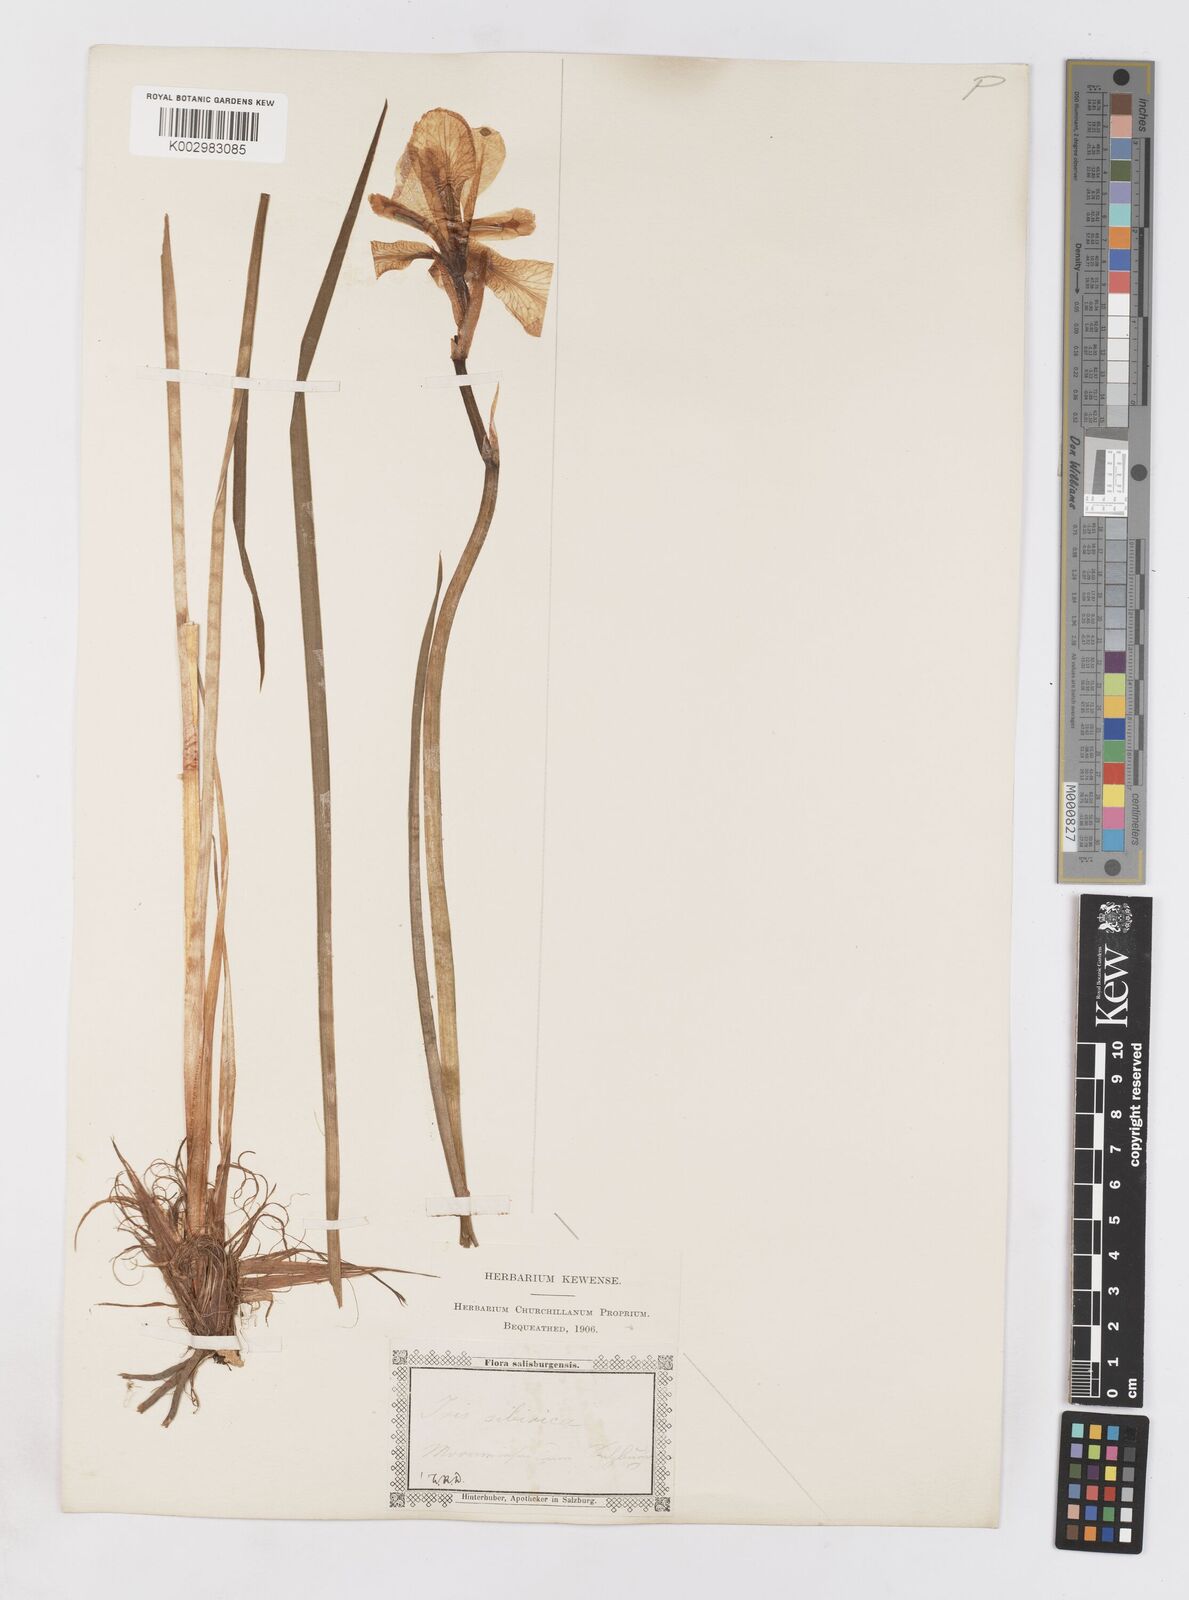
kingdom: Plantae
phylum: Tracheophyta
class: Liliopsida
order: Asparagales
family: Iridaceae
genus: Iris
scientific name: Iris sibirica
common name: Siberian iris
